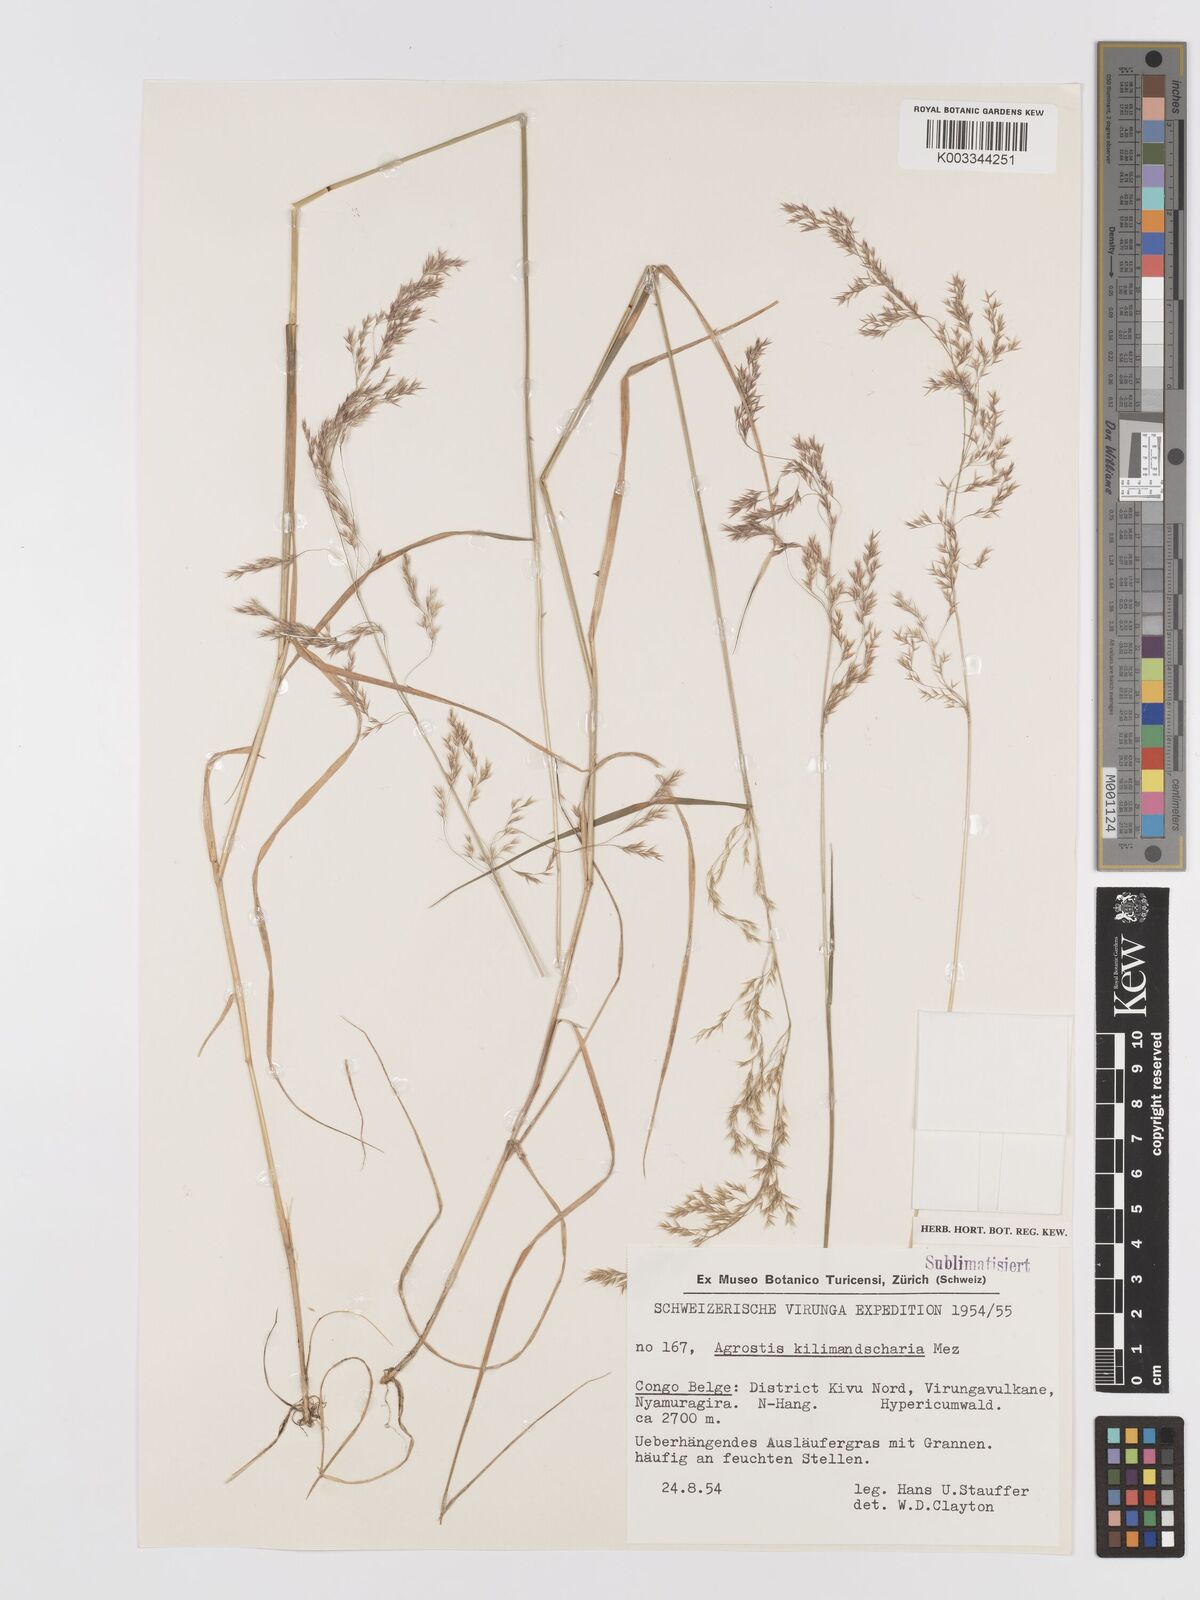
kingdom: Plantae
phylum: Tracheophyta
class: Liliopsida
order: Poales
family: Poaceae
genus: Agrostis
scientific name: Agrostis kilimandscharica
